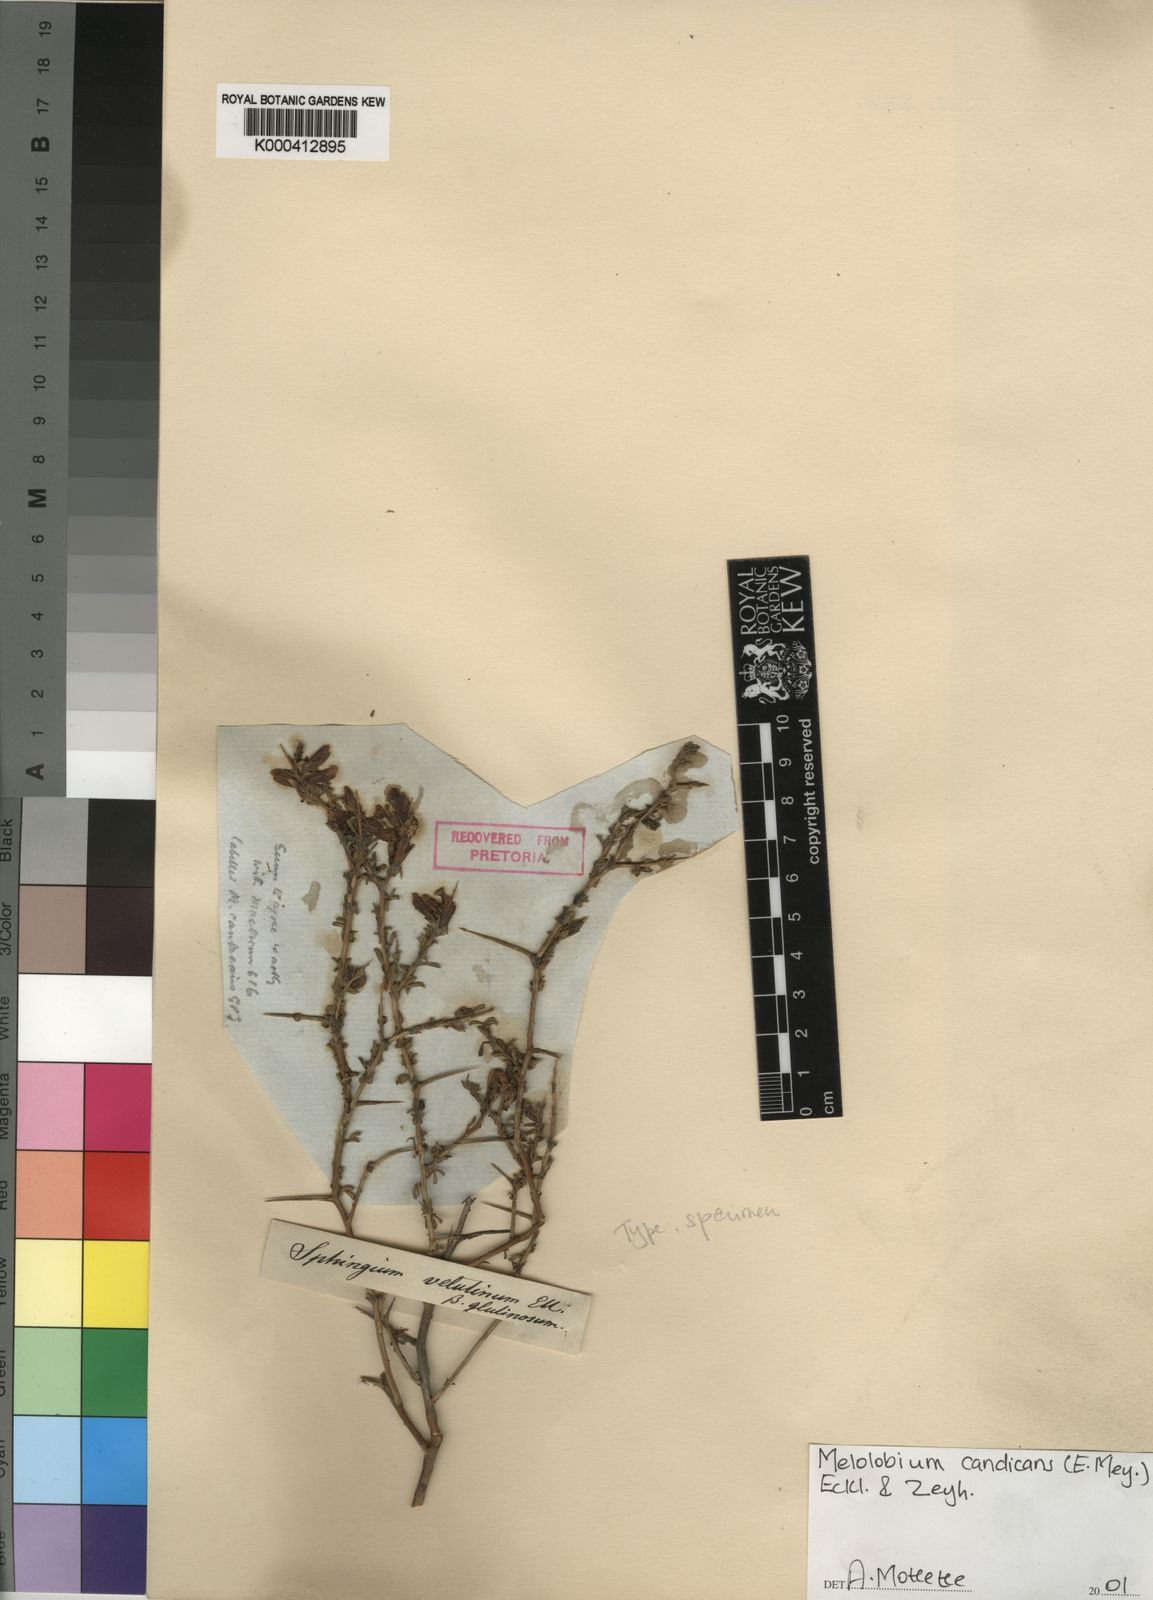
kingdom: Plantae
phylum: Tracheophyta
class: Magnoliopsida
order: Fabales
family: Fabaceae
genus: Melolobium
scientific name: Melolobium candicans
